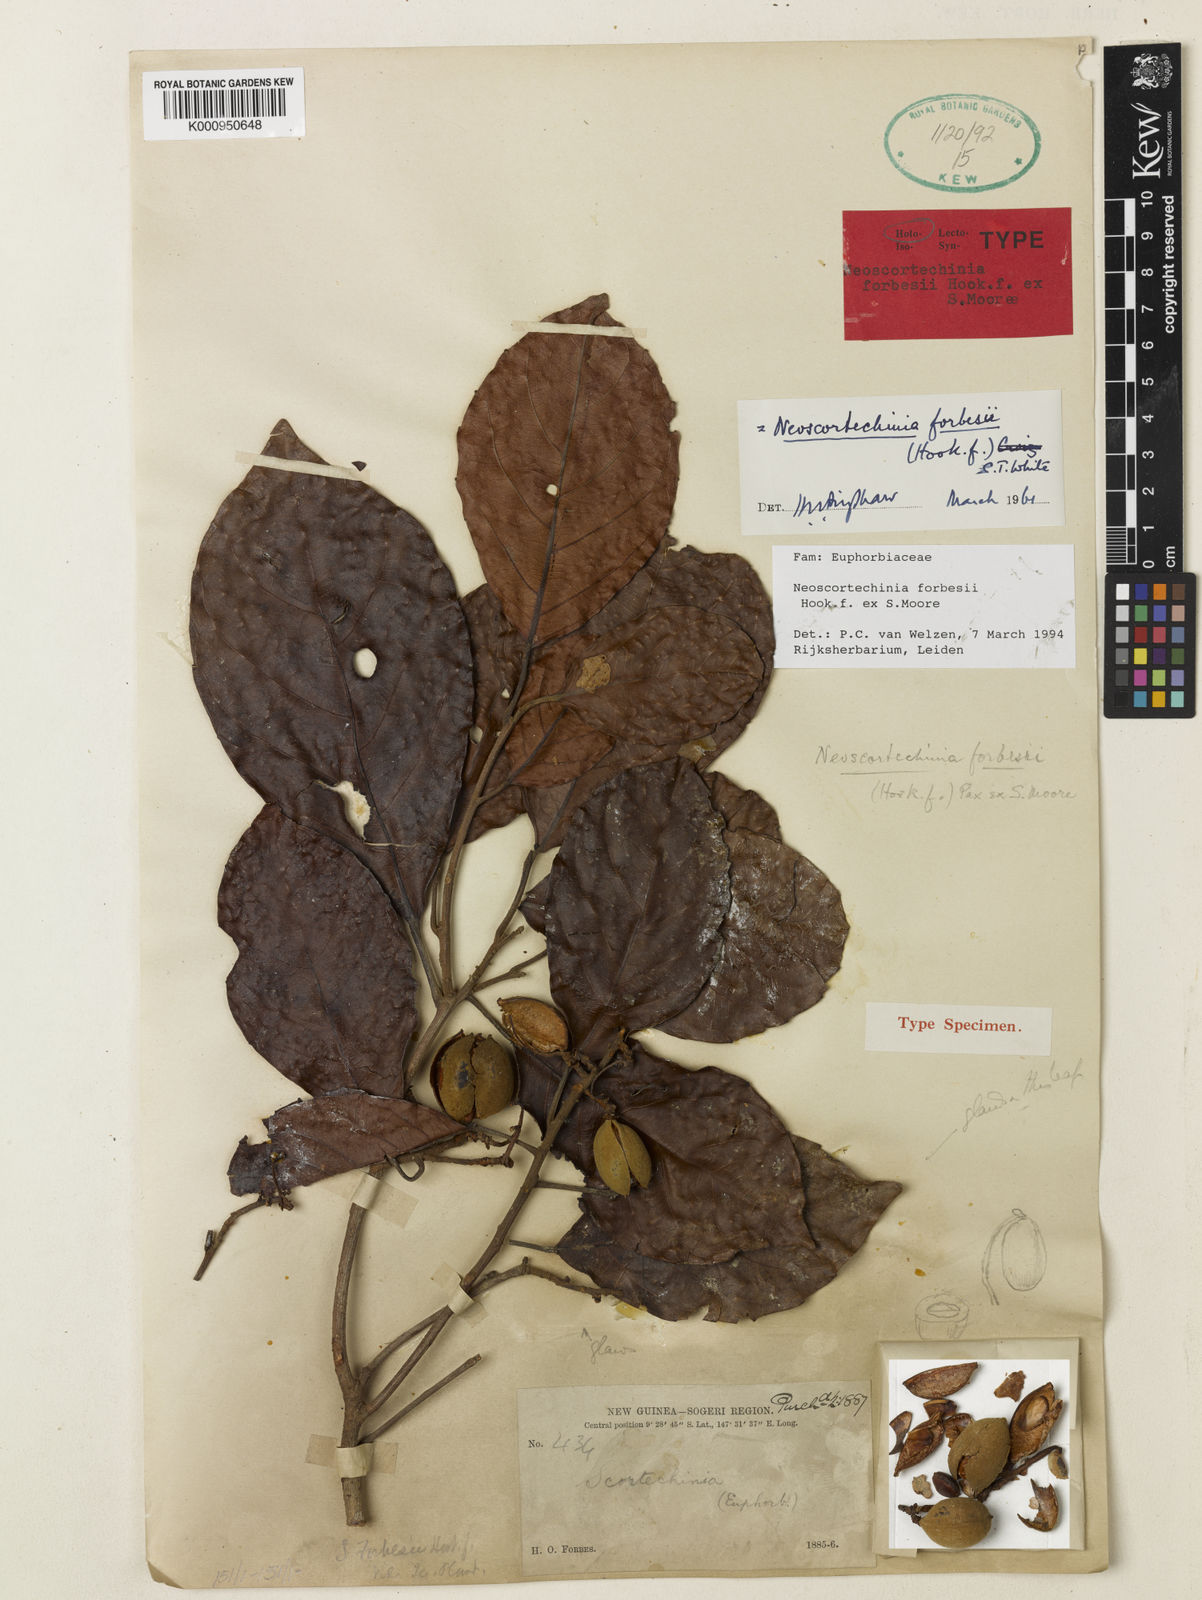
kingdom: Plantae
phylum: Tracheophyta
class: Magnoliopsida
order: Malpighiales
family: Euphorbiaceae
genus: Neoscortechinia
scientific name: Neoscortechinia forbesii
